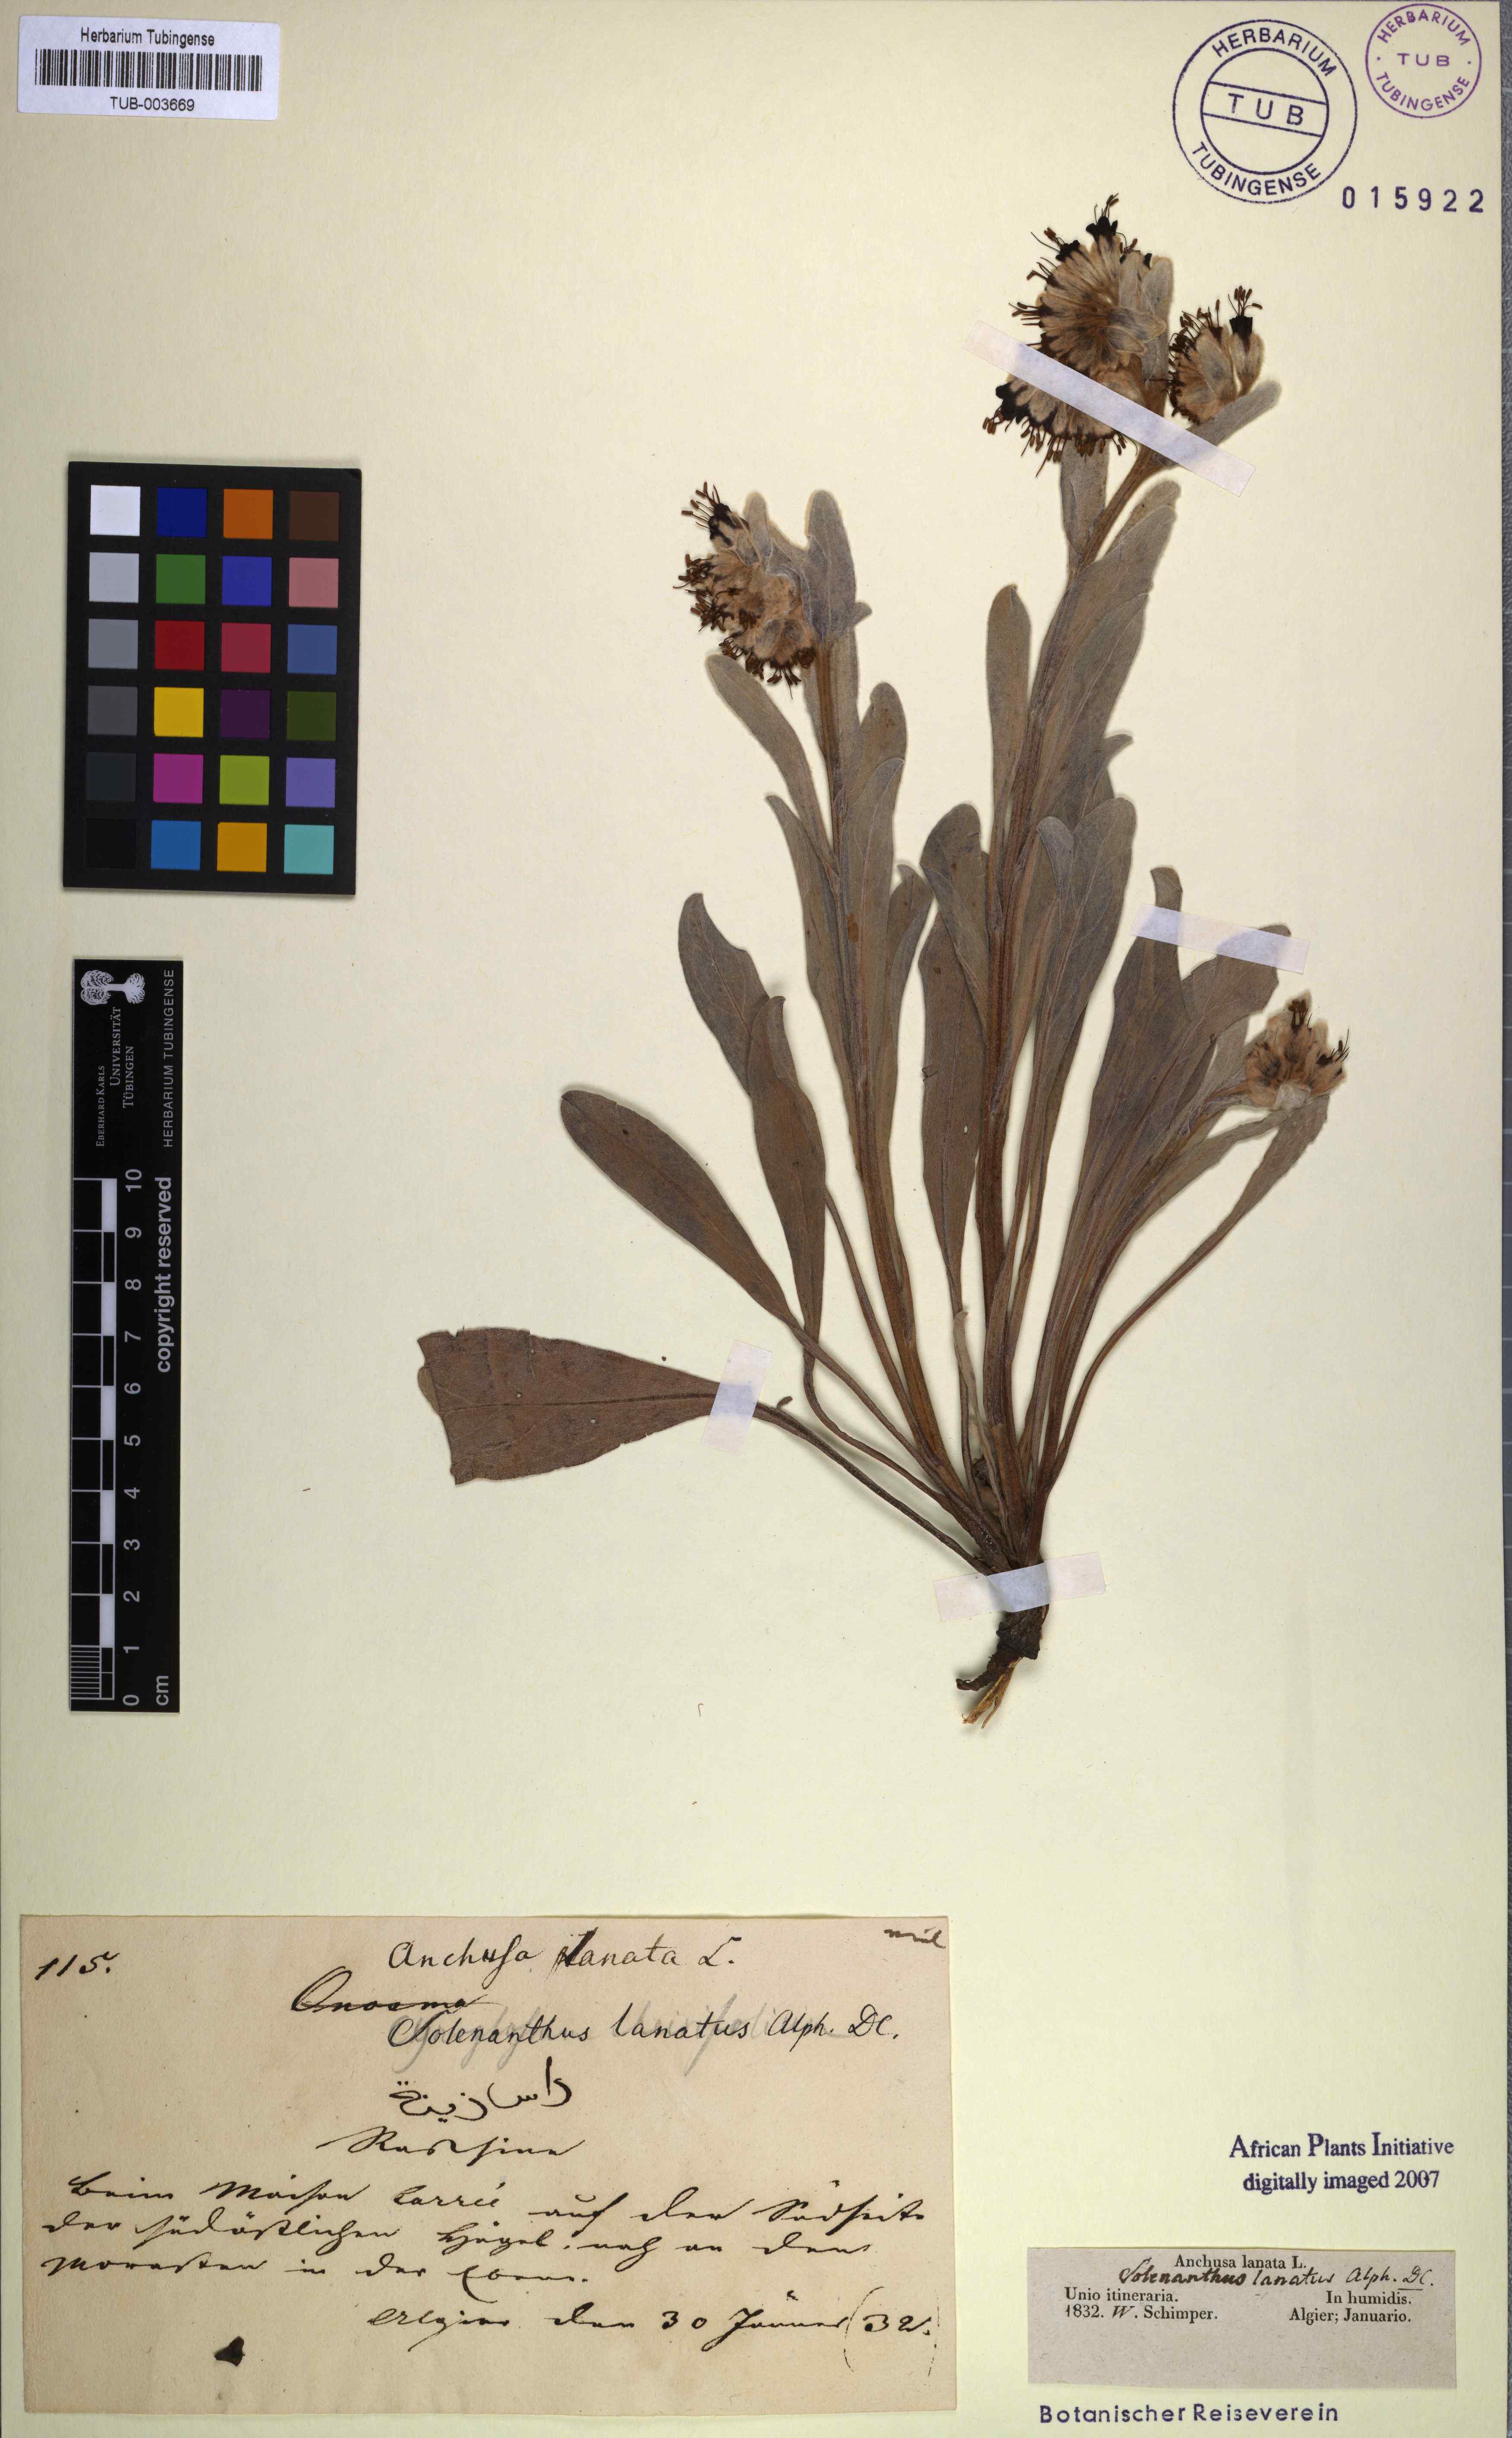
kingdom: Plantae
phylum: Tracheophyta
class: Magnoliopsida
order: Boraginales
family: Boraginaceae
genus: Pardoglossum
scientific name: Pardoglossum lanatum
